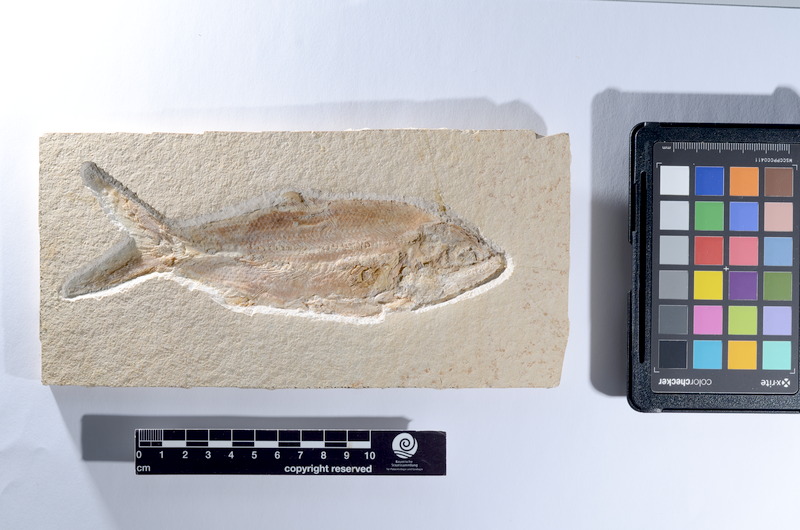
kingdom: Animalia
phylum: Chordata
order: Amiiformes
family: Caturidae
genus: Caturus
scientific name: Caturus furcatus
